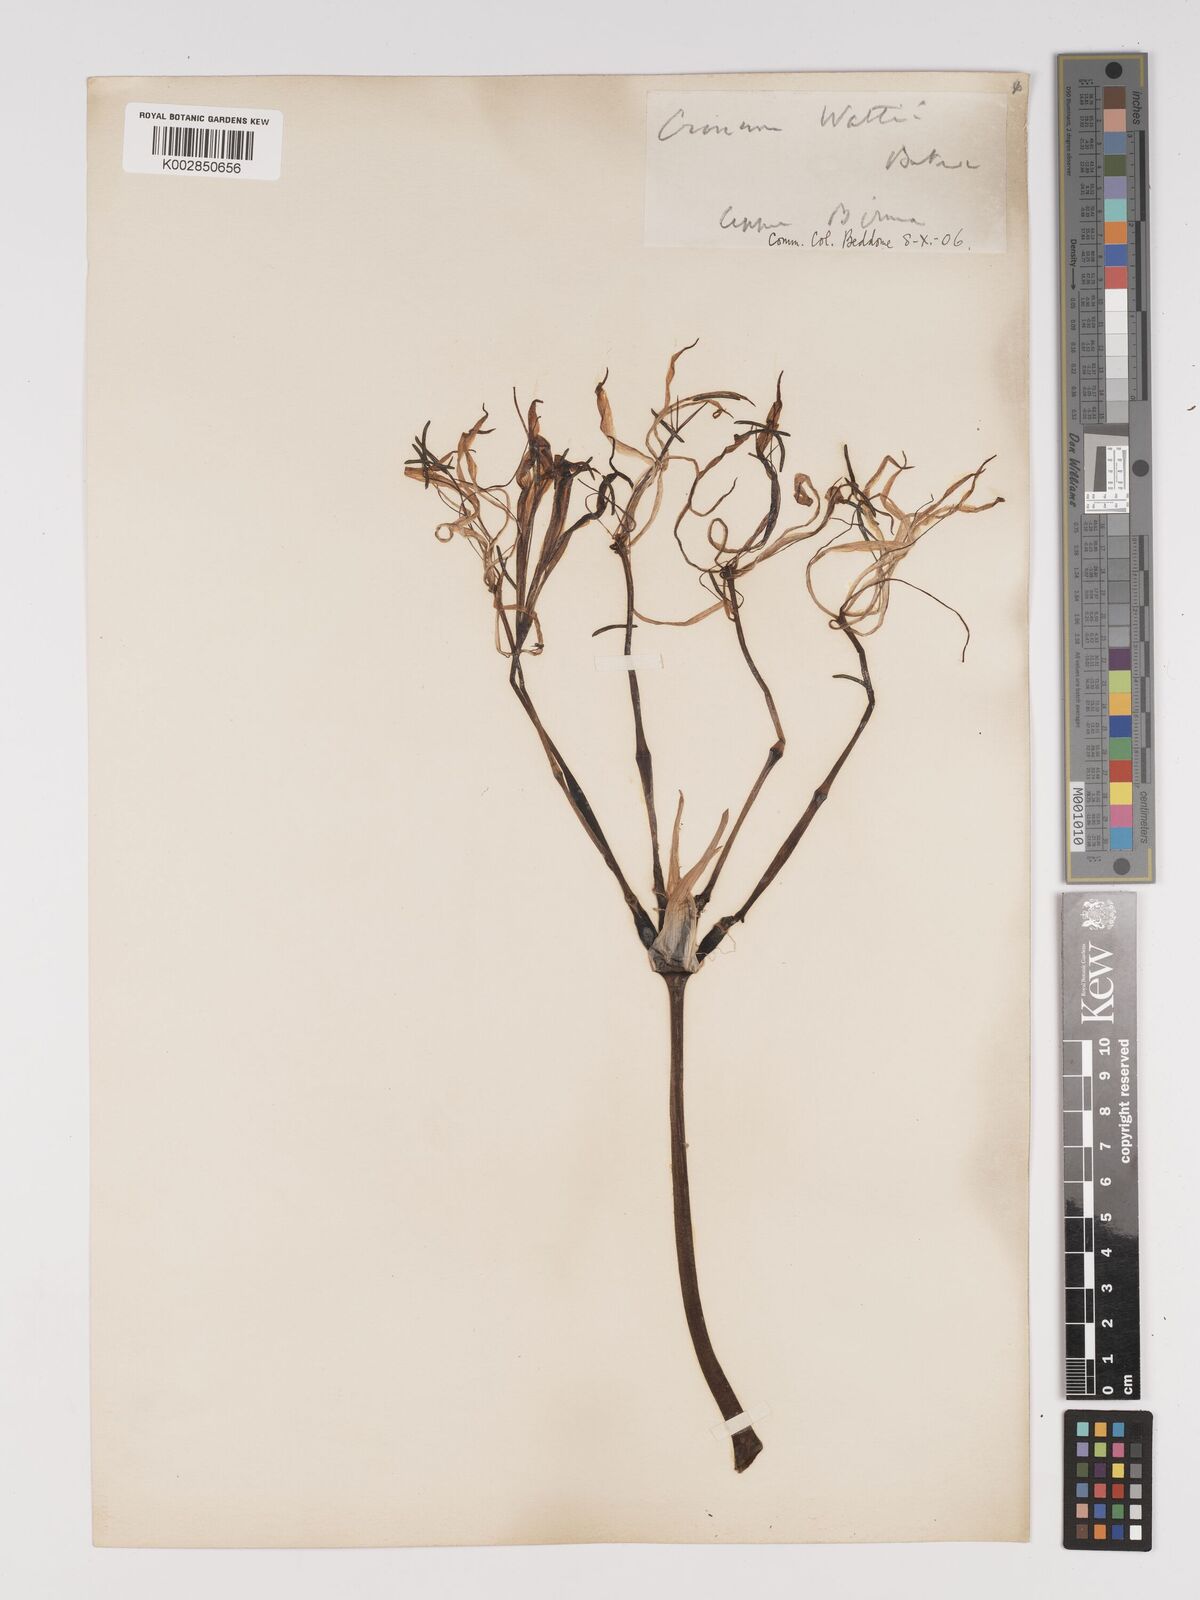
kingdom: Plantae
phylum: Tracheophyta
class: Liliopsida
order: Asparagales
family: Amaryllidaceae
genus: Crinum
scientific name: Crinum wattii
